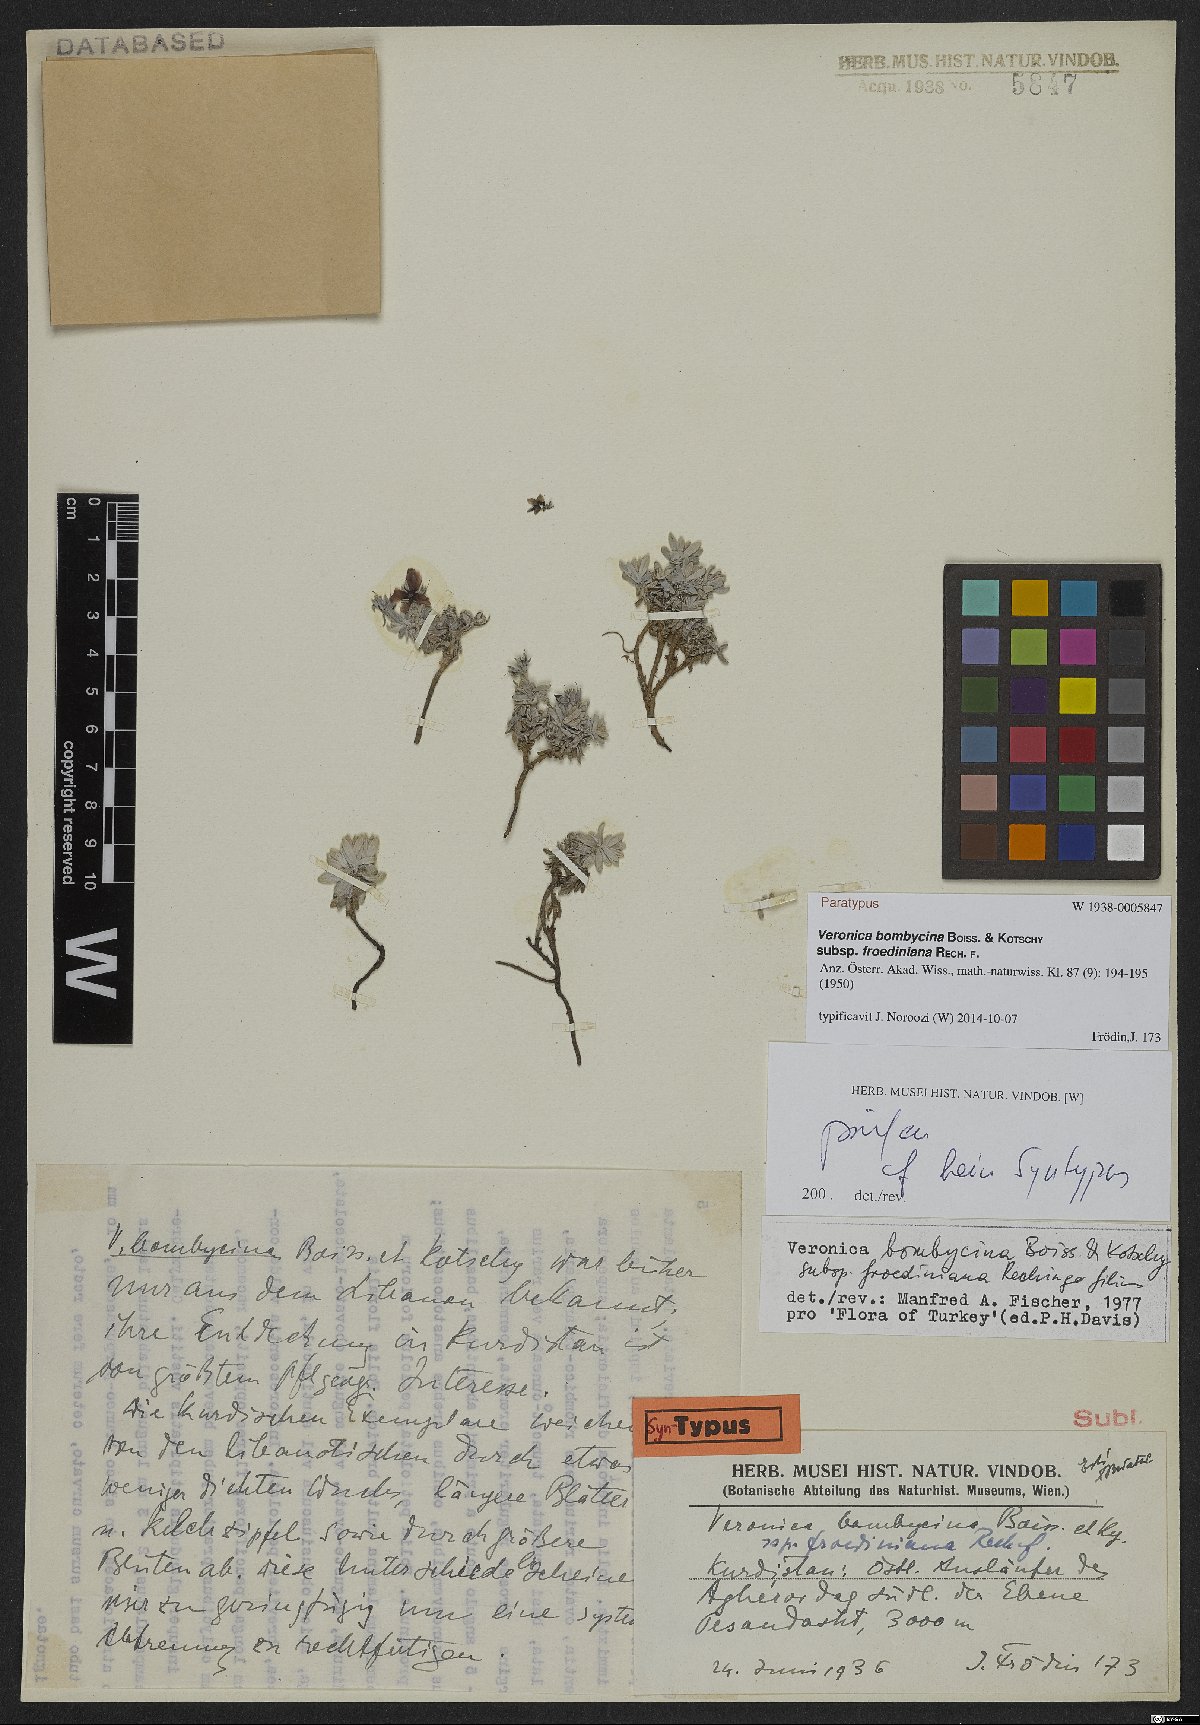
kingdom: Plantae
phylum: Tracheophyta
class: Magnoliopsida
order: Lamiales
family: Plantaginaceae
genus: Veronica
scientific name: Veronica bombycina
